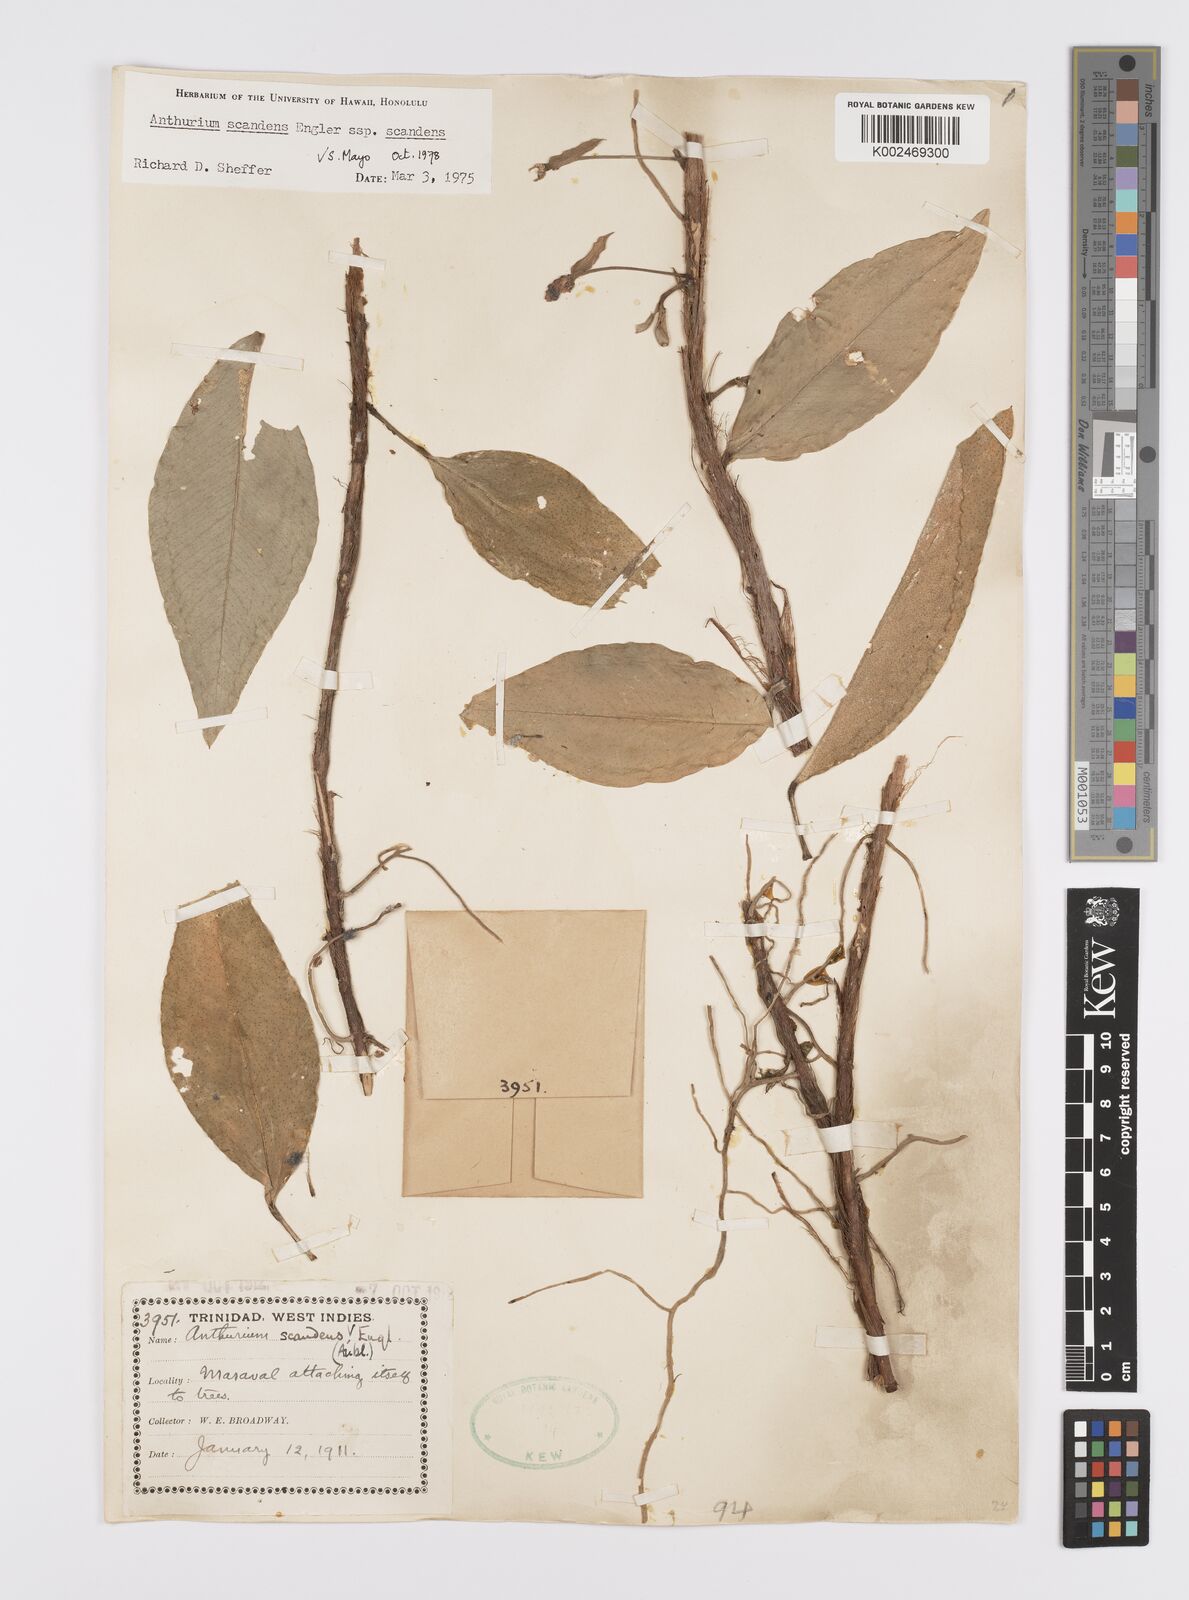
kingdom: Plantae
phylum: Tracheophyta
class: Liliopsida
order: Alismatales
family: Araceae
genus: Anthurium
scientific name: Anthurium scandens
